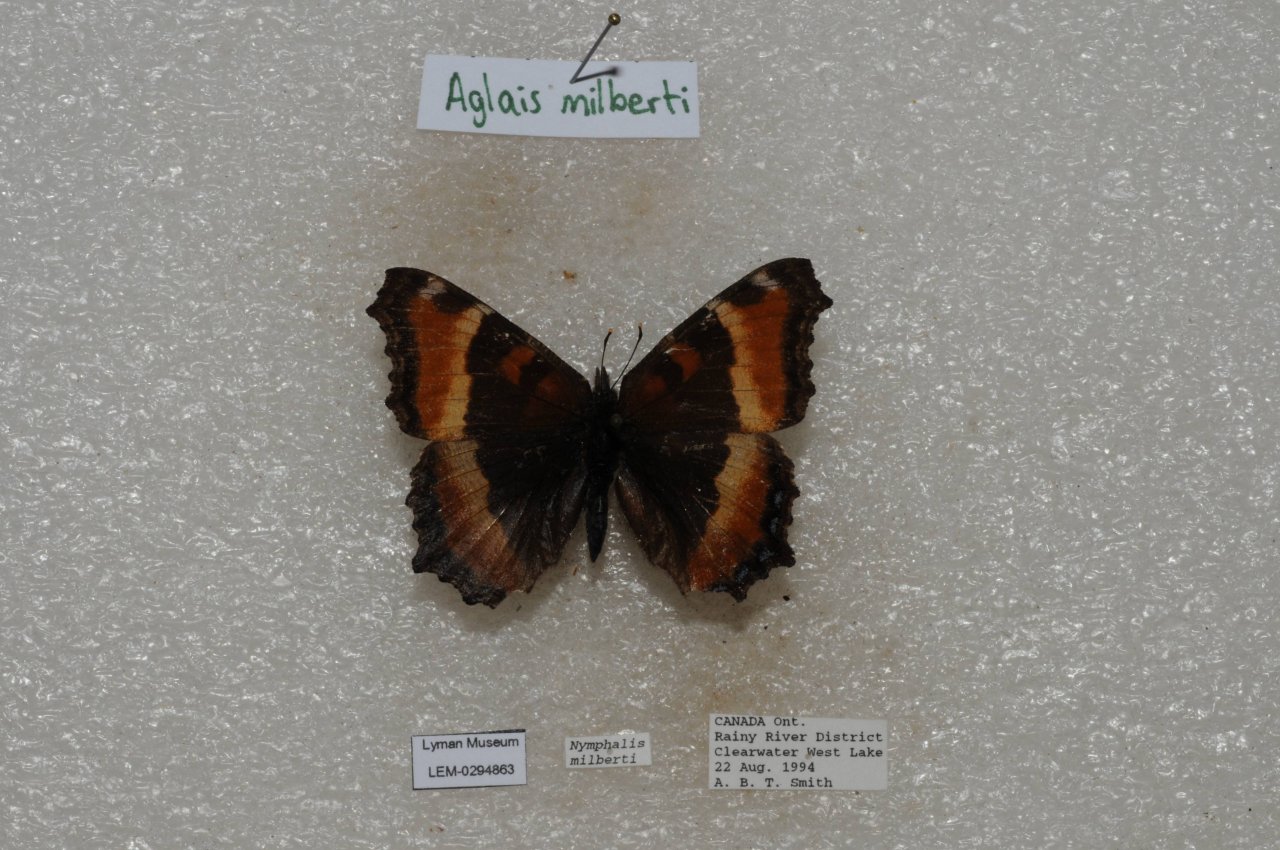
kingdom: Animalia
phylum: Arthropoda
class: Insecta
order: Lepidoptera
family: Nymphalidae
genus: Aglais
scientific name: Aglais milberti
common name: Milbert's Tortoiseshell
